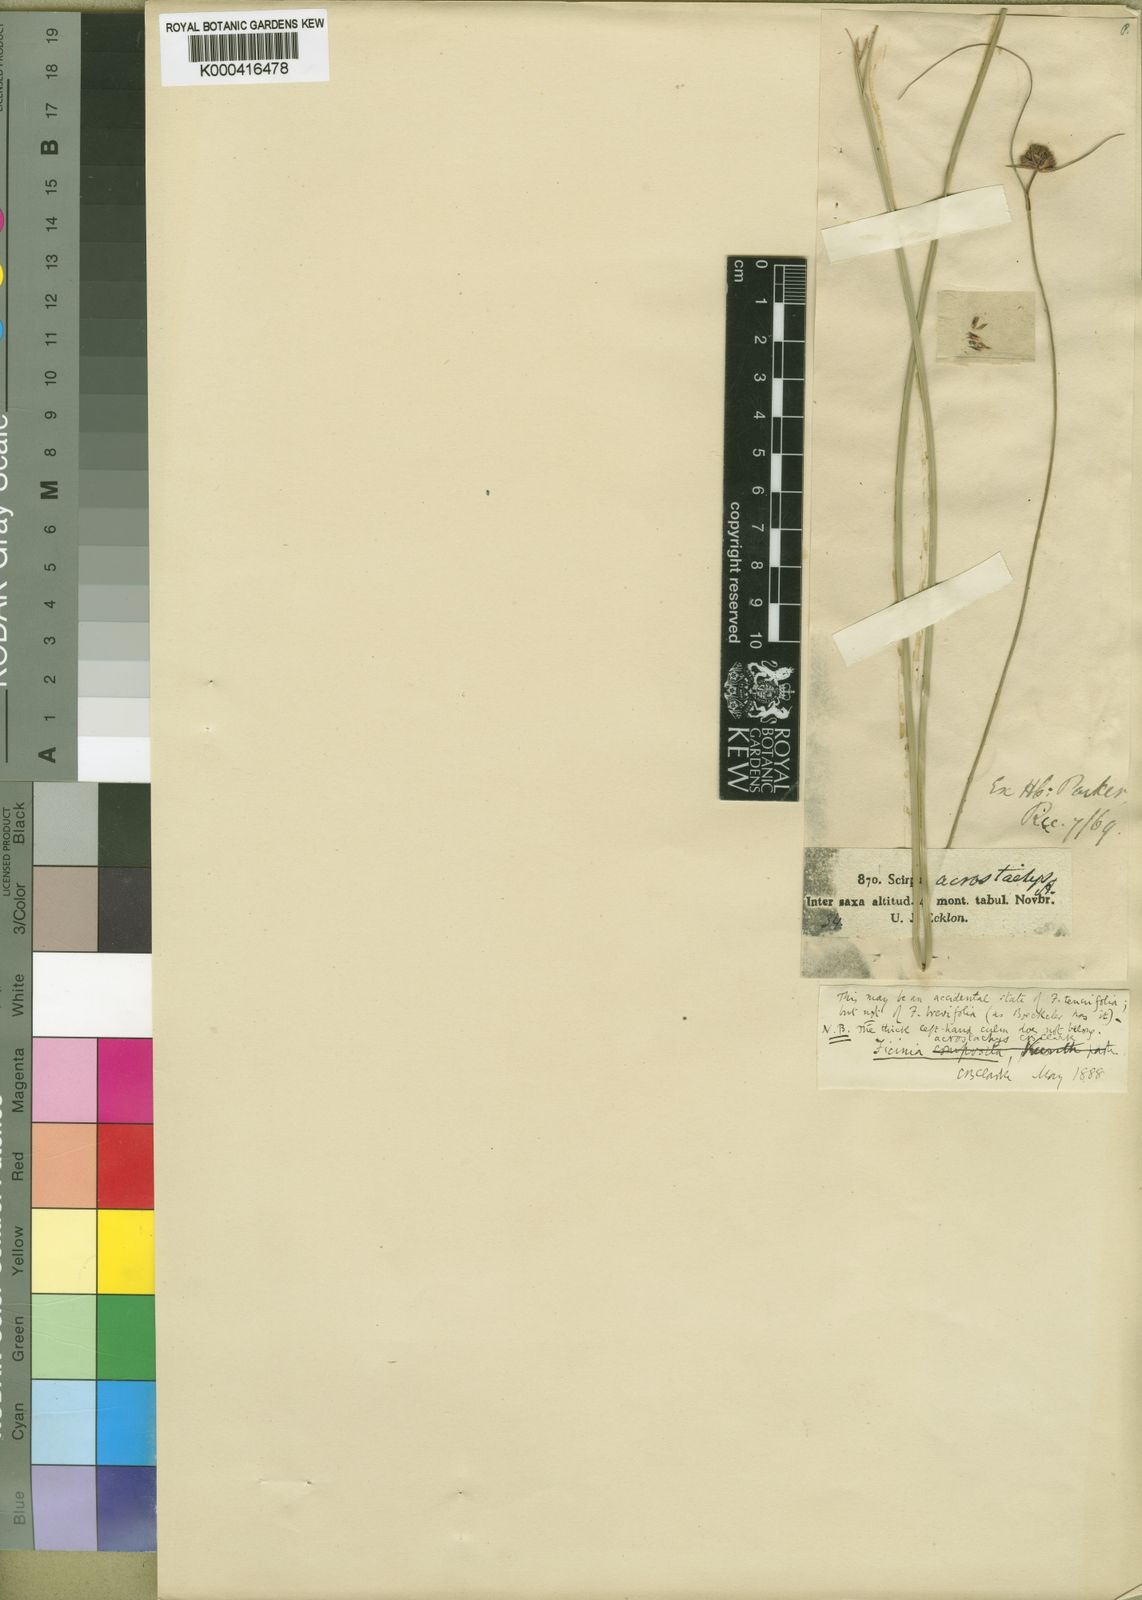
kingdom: Plantae
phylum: Tracheophyta
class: Liliopsida
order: Poales
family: Cyperaceae
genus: Ficinia
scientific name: Ficinia acrostachys
